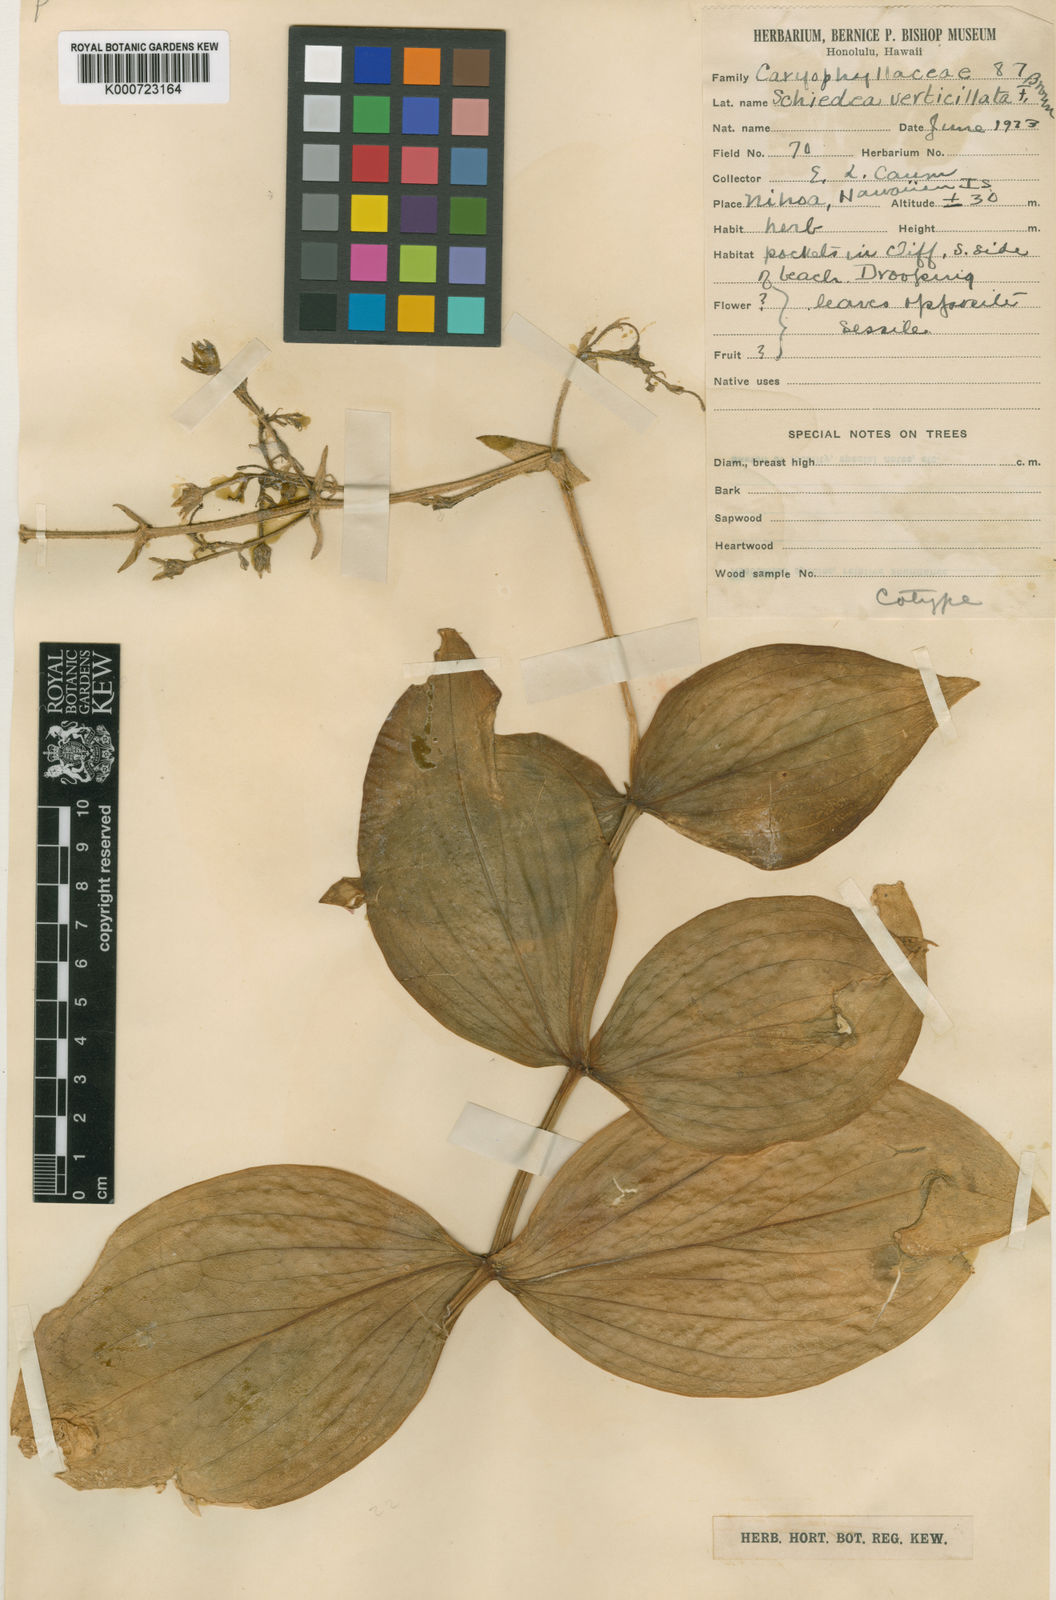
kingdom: Plantae
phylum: Tracheophyta
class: Magnoliopsida
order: Caryophyllales
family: Caryophyllaceae
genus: Schiedea
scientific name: Schiedea verticillata
